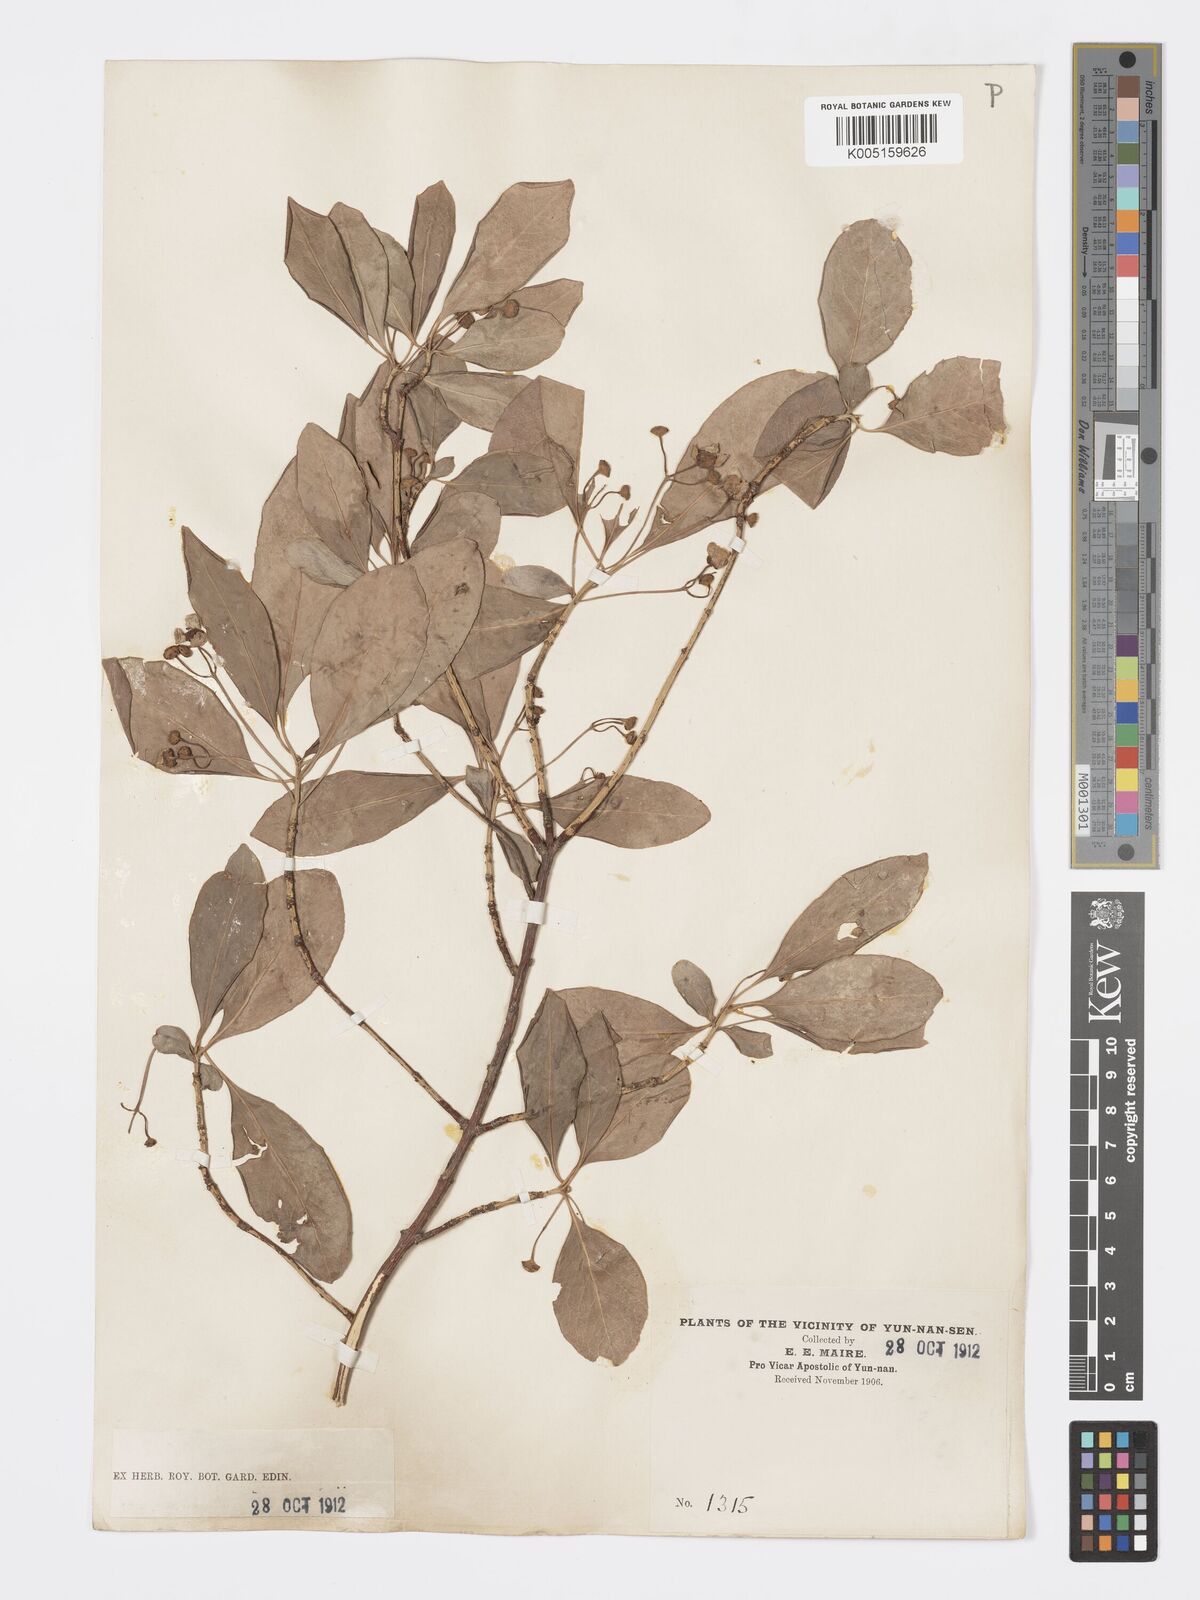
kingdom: Plantae
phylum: Tracheophyta
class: Magnoliopsida
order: Celastrales
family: Celastraceae
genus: Euonymus
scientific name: Euonymus grandiflorus
